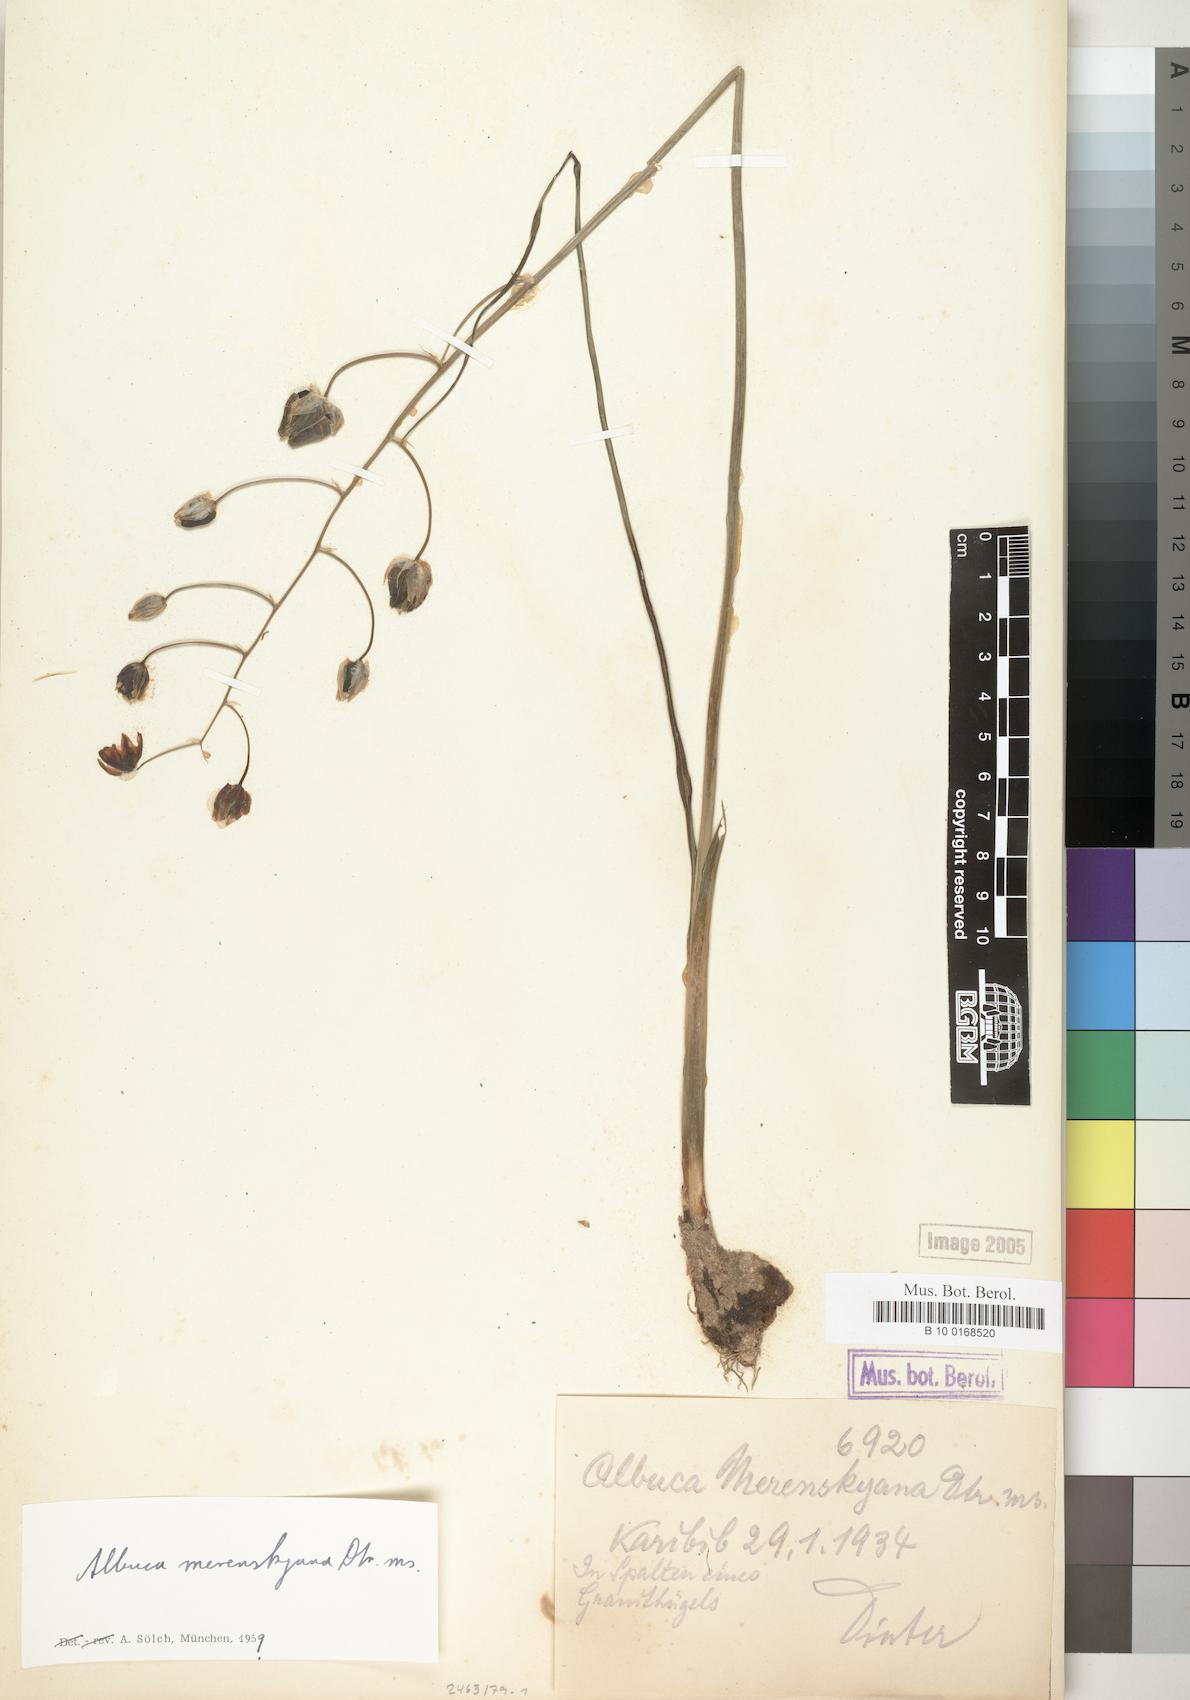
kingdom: Plantae
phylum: Tracheophyta
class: Liliopsida
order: Asparagales
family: Asparagaceae
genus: Albuca
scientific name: Albuca
